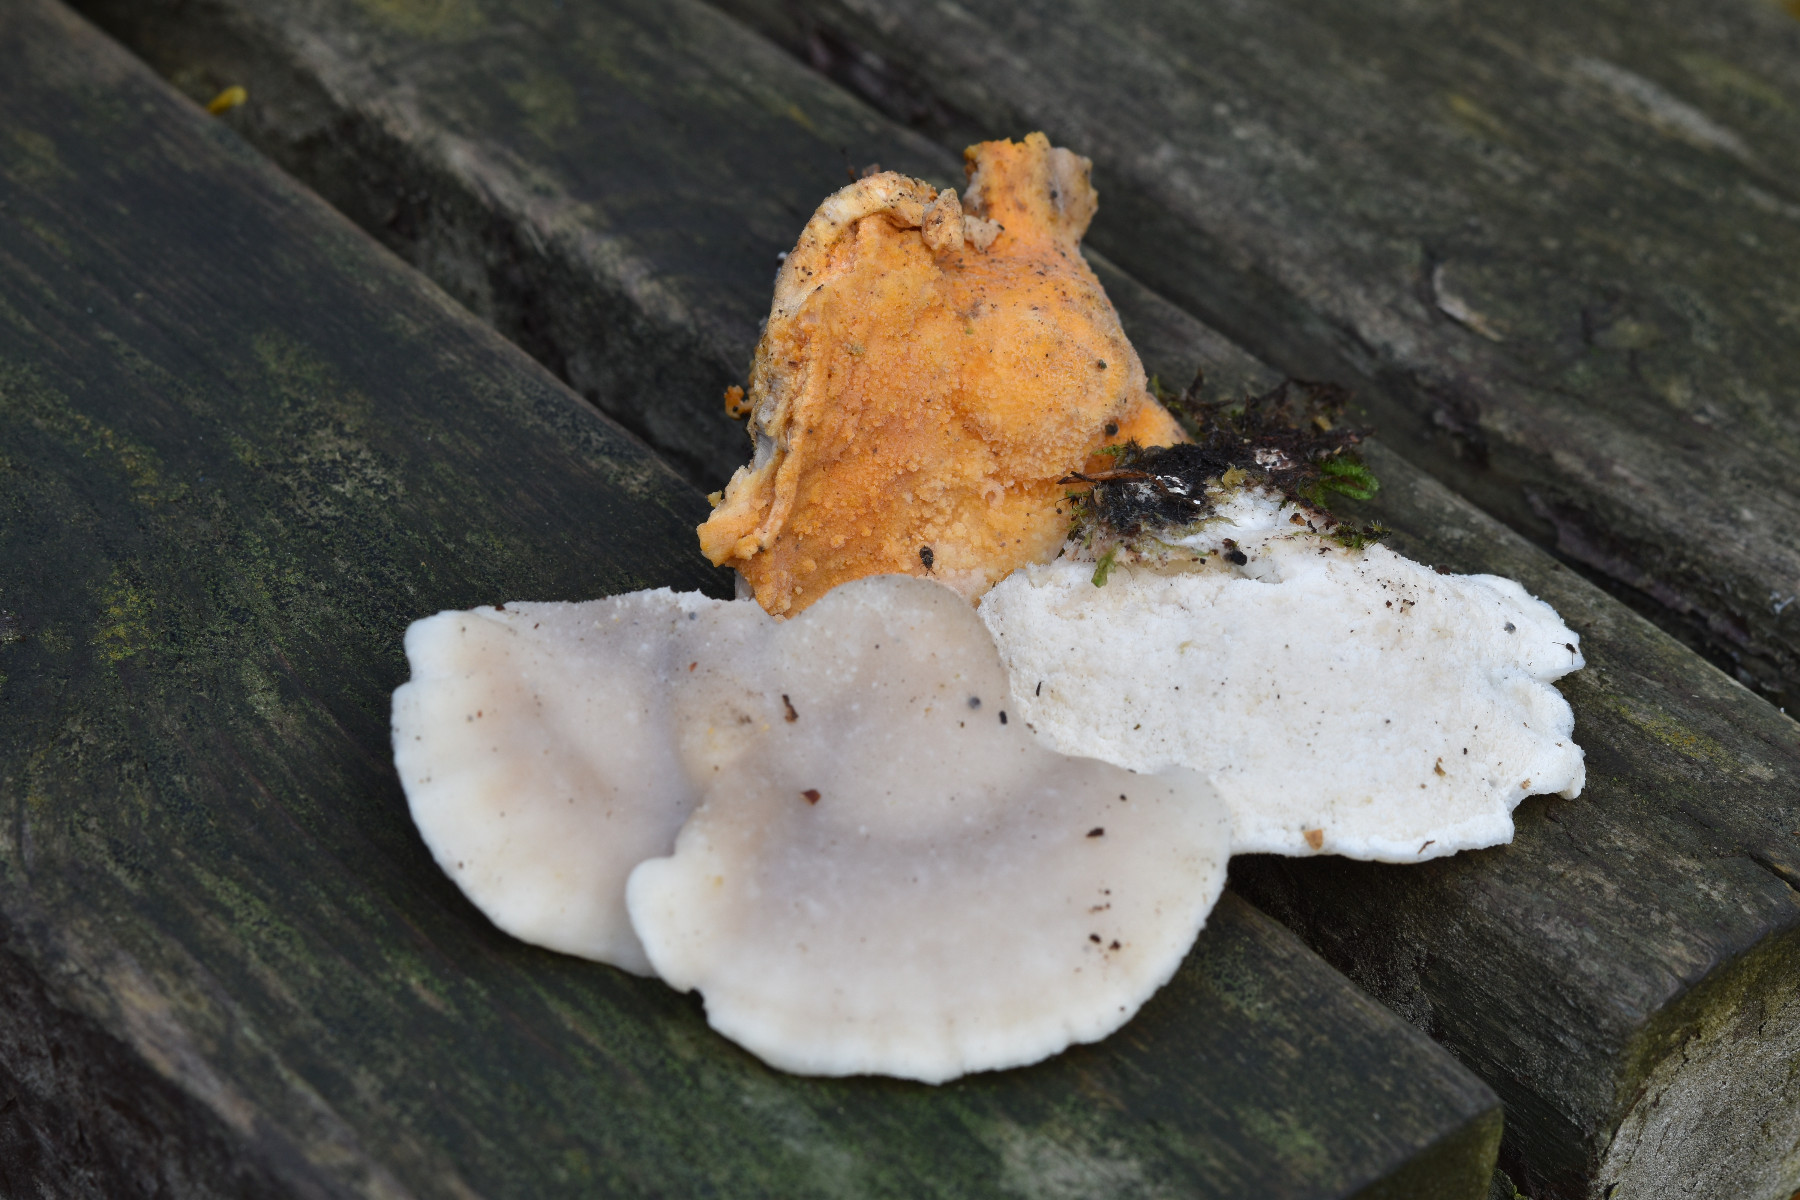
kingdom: Fungi
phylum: Ascomycota
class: Sordariomycetes
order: Hypocreales
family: Hypocreaceae
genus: Protocrea
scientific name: Protocrea pallida
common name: bleg kødkerne
